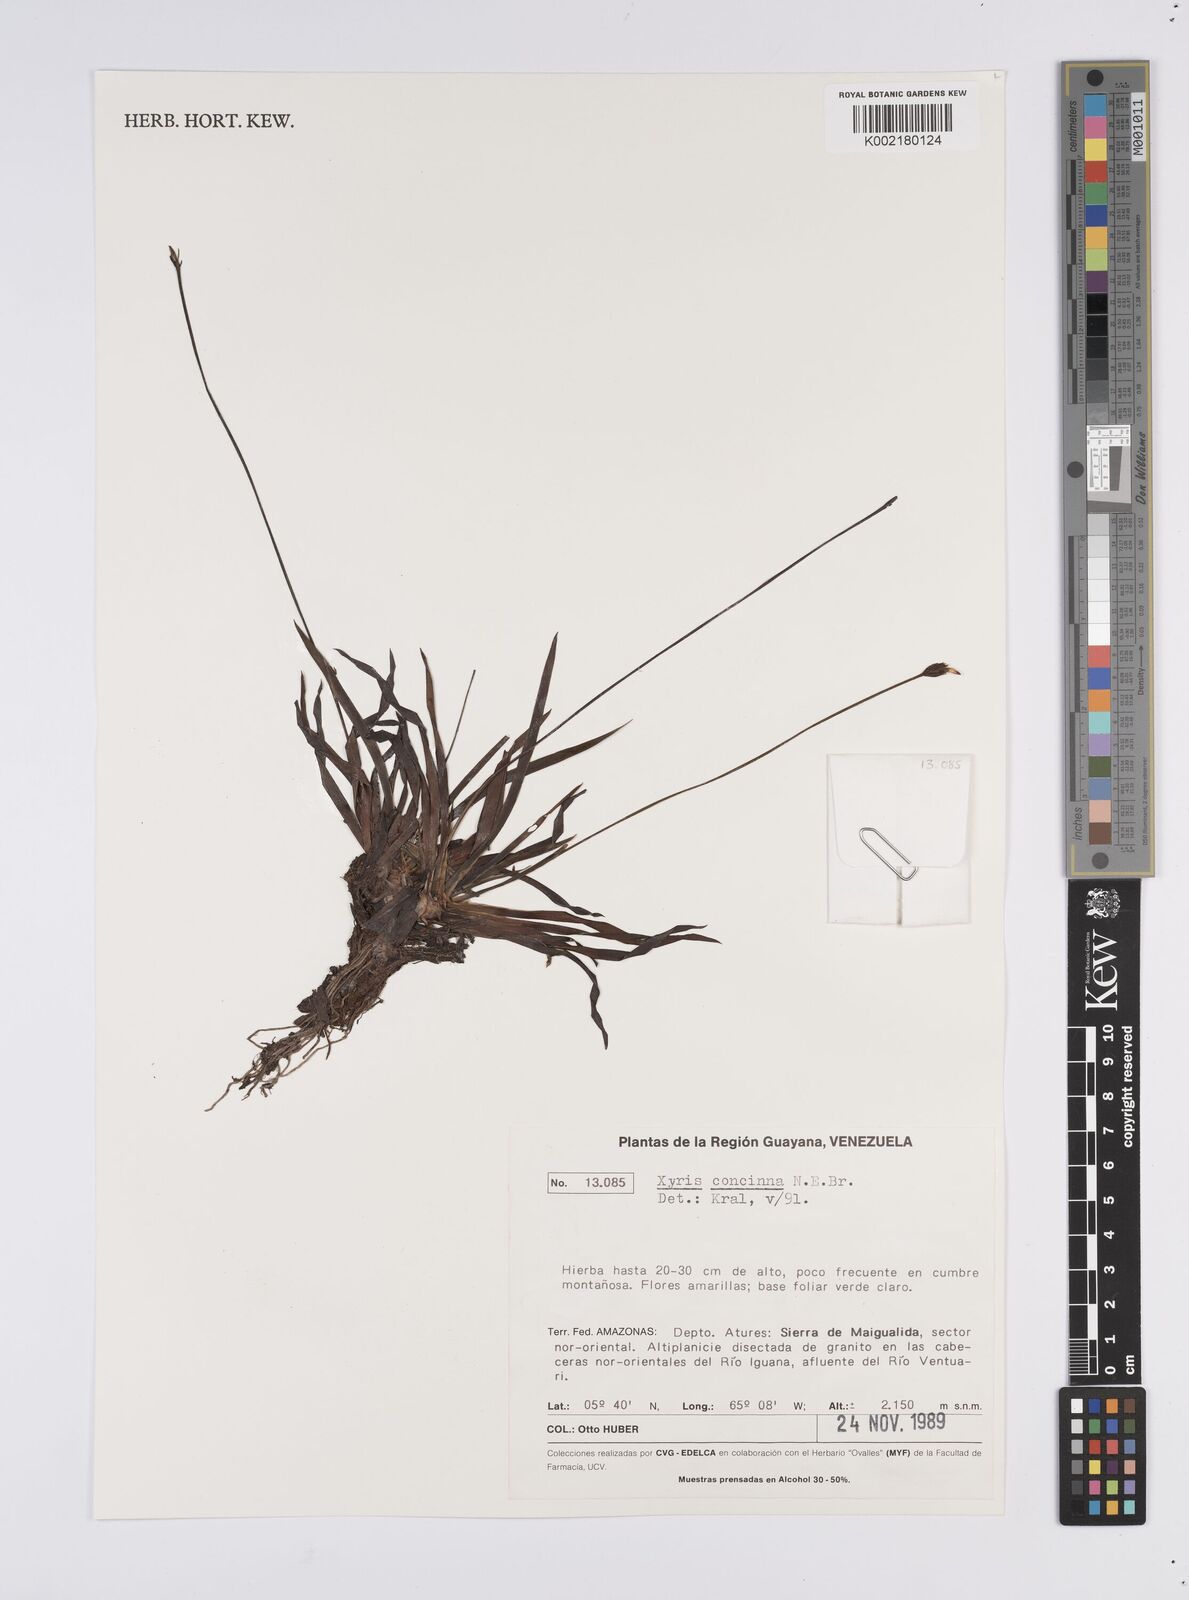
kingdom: Plantae
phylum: Tracheophyta
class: Liliopsida
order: Poales
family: Xyridaceae
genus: Xyris
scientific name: Xyris concinna
